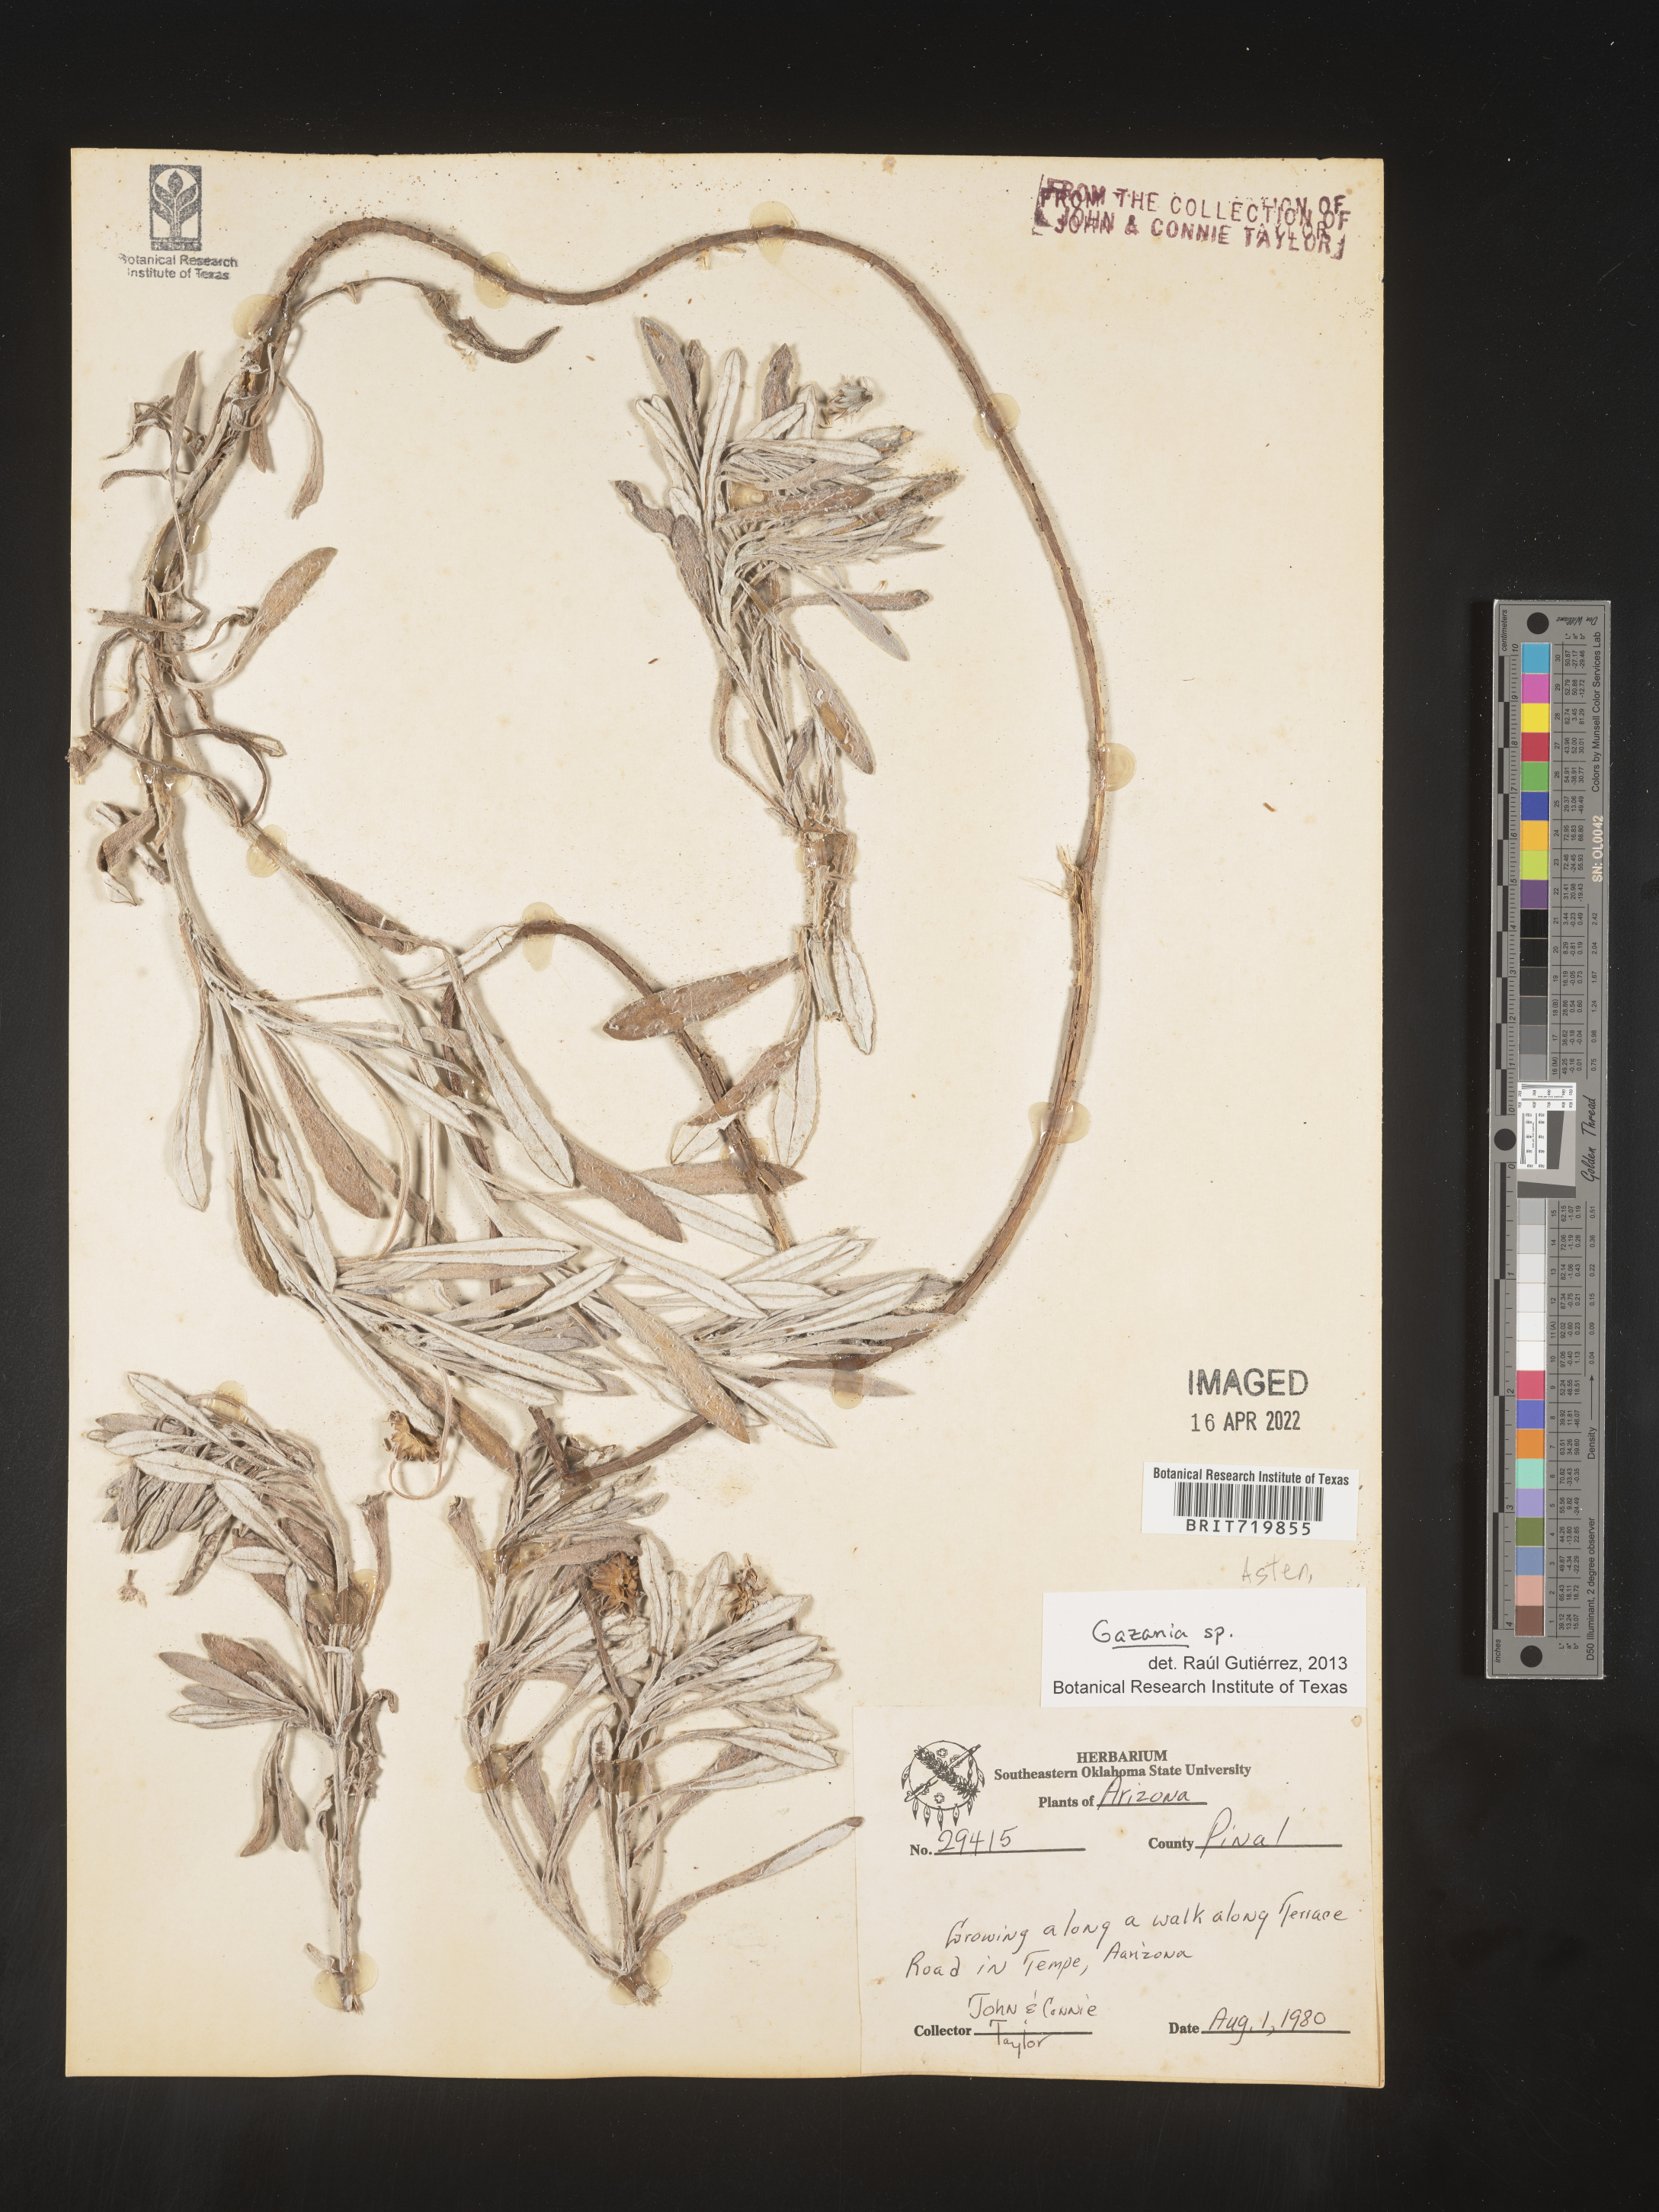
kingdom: Plantae
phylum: Tracheophyta
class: Magnoliopsida
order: Asterales
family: Asteraceae
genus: Gazania
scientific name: Gazania
